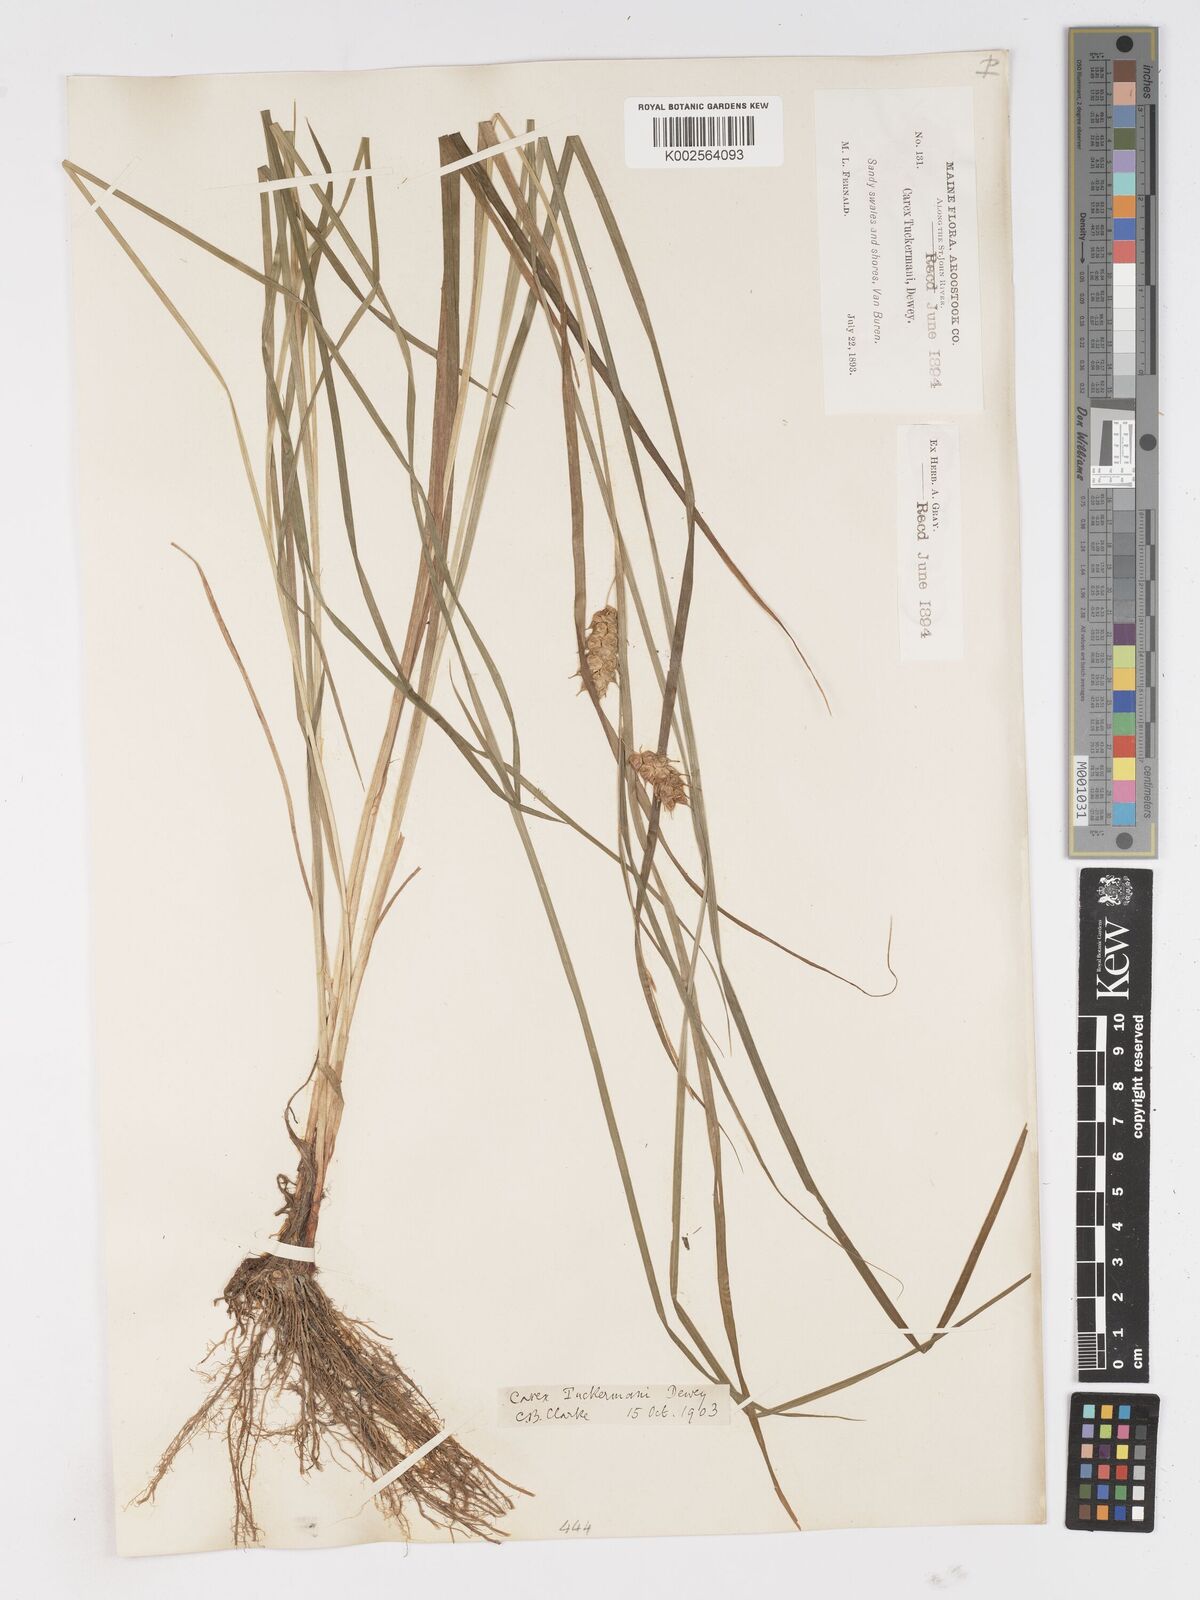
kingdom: Plantae
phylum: Tracheophyta
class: Liliopsida
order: Poales
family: Cyperaceae
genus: Carex
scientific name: Carex tuckermanii
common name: Tuckerman's sedge
